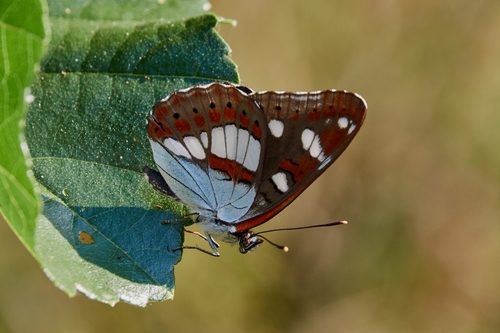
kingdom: Animalia
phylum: Arthropoda
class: Insecta
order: Lepidoptera
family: Nymphalidae
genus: Limenitis
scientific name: Limenitis reducta
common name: Southern white admiral
